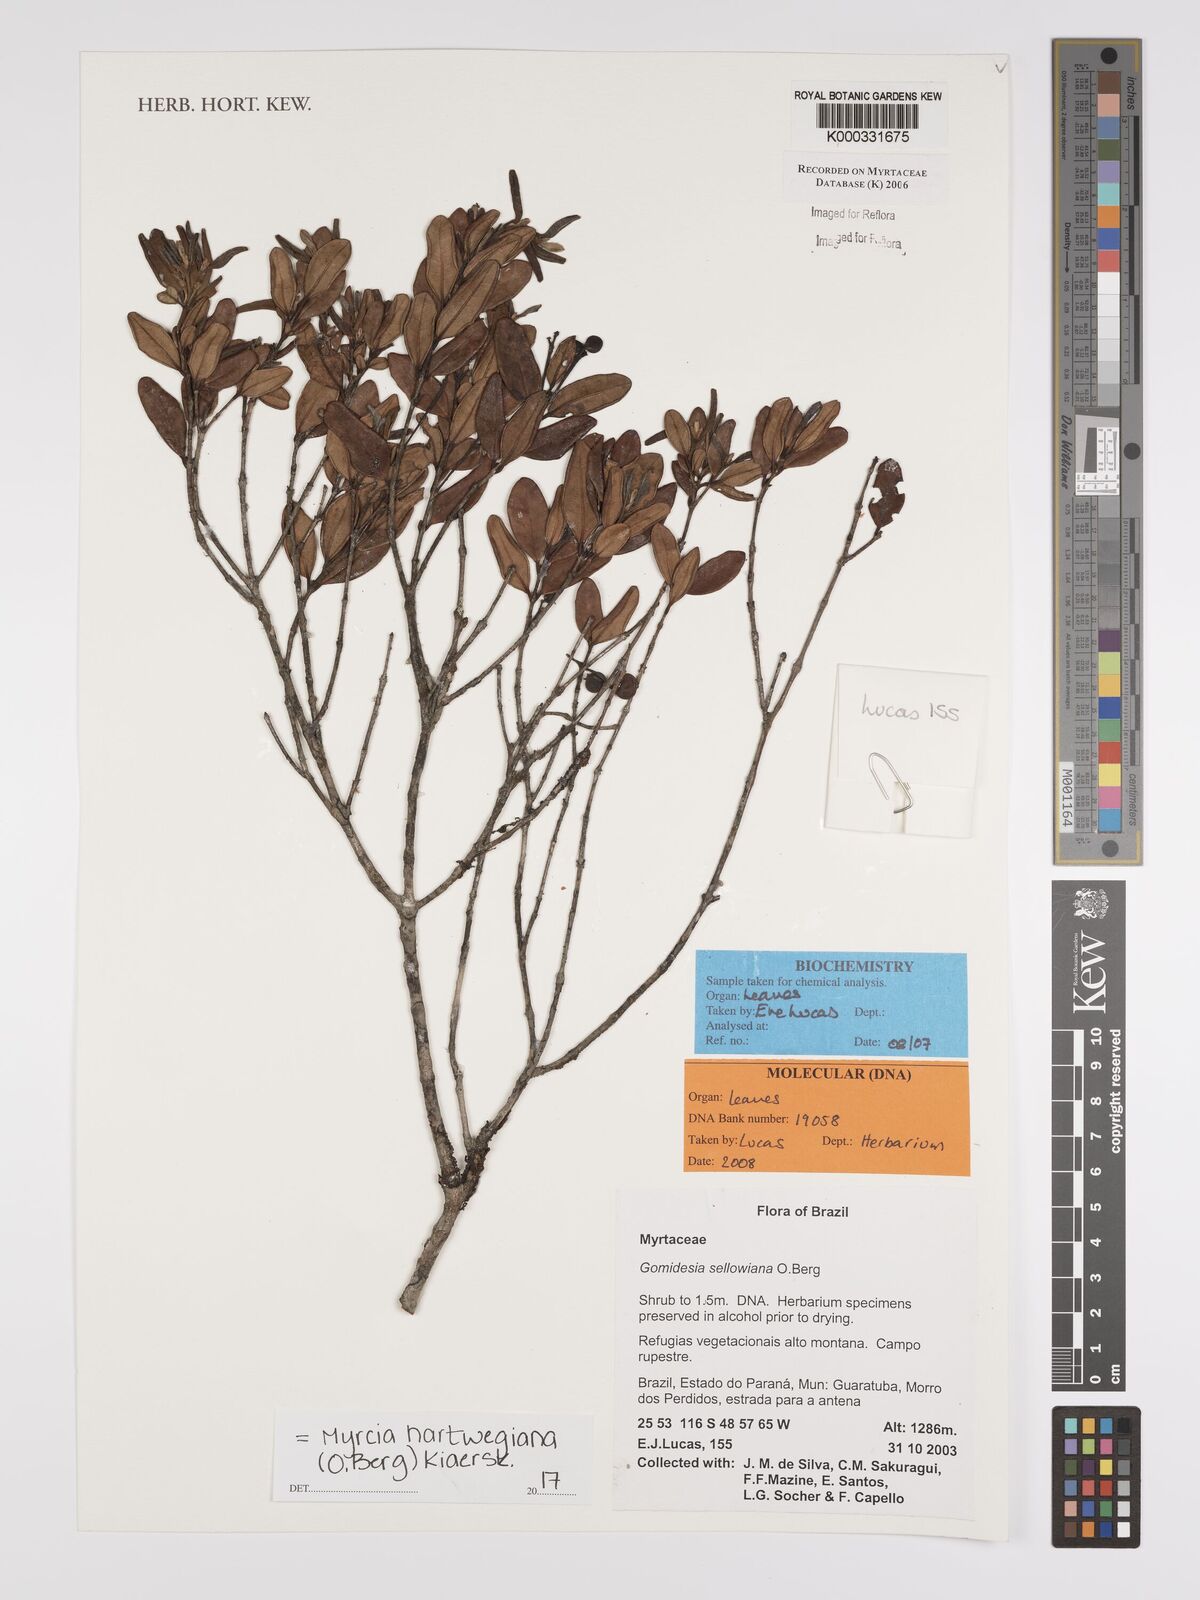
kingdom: Plantae
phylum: Tracheophyta
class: Magnoliopsida
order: Myrtales
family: Myrtaceae
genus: Myrcia
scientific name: Myrcia hartwegiana
